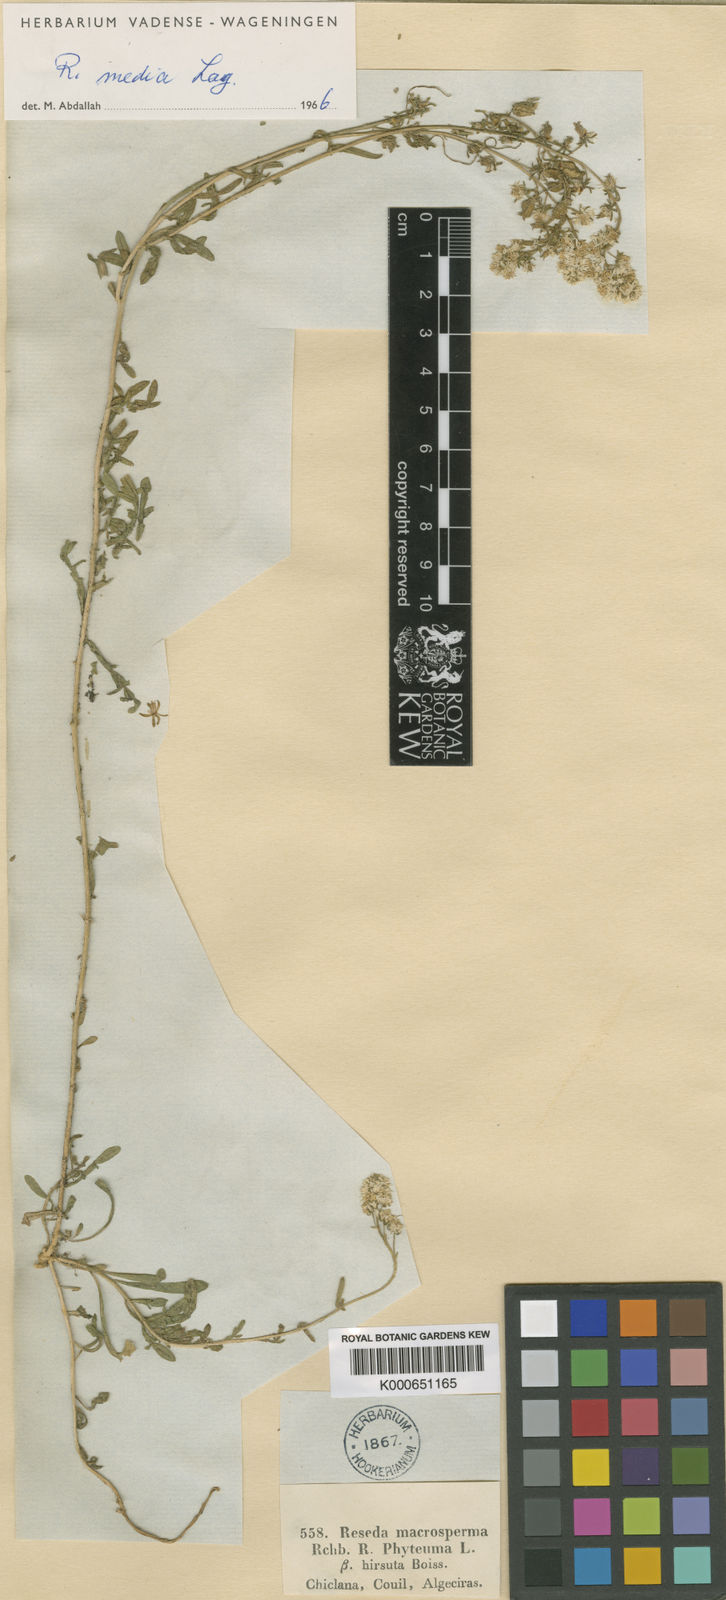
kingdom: Plantae
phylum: Tracheophyta
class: Magnoliopsida
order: Brassicales
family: Resedaceae
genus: Reseda
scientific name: Reseda media
